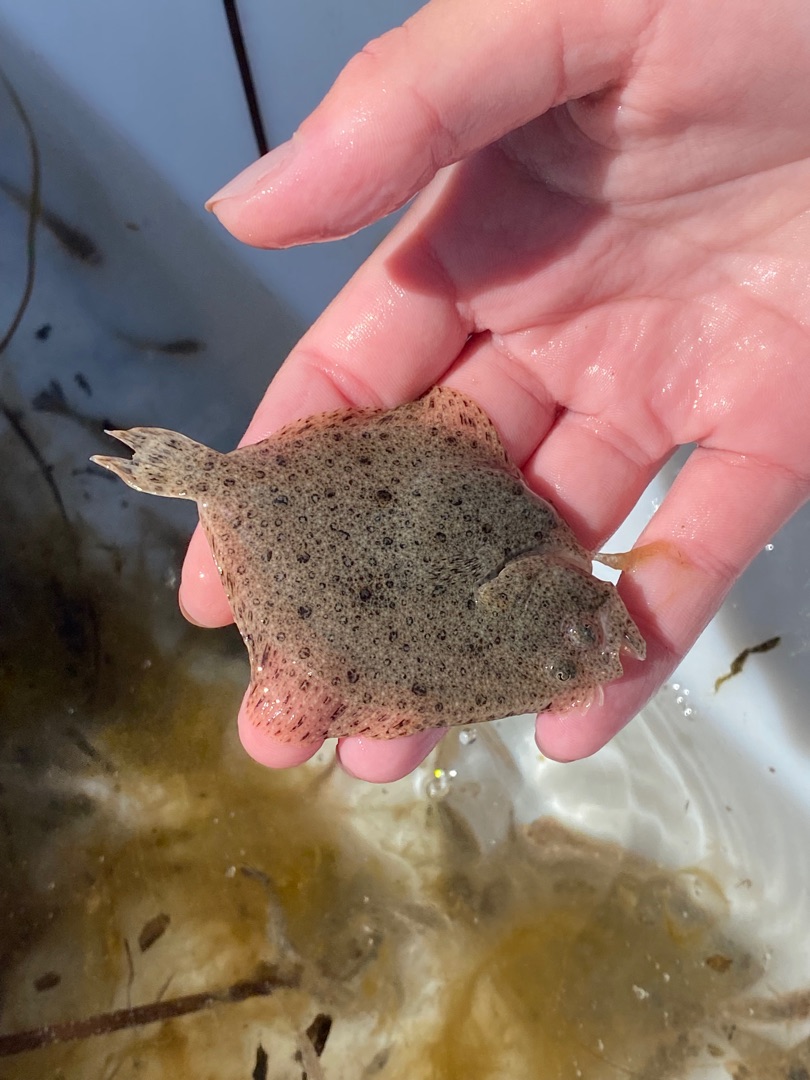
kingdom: Animalia
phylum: Chordata
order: Pleuronectiformes
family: Scophthalmidae
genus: Scophthalmus
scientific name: Scophthalmus rhombus
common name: Slethvarre
